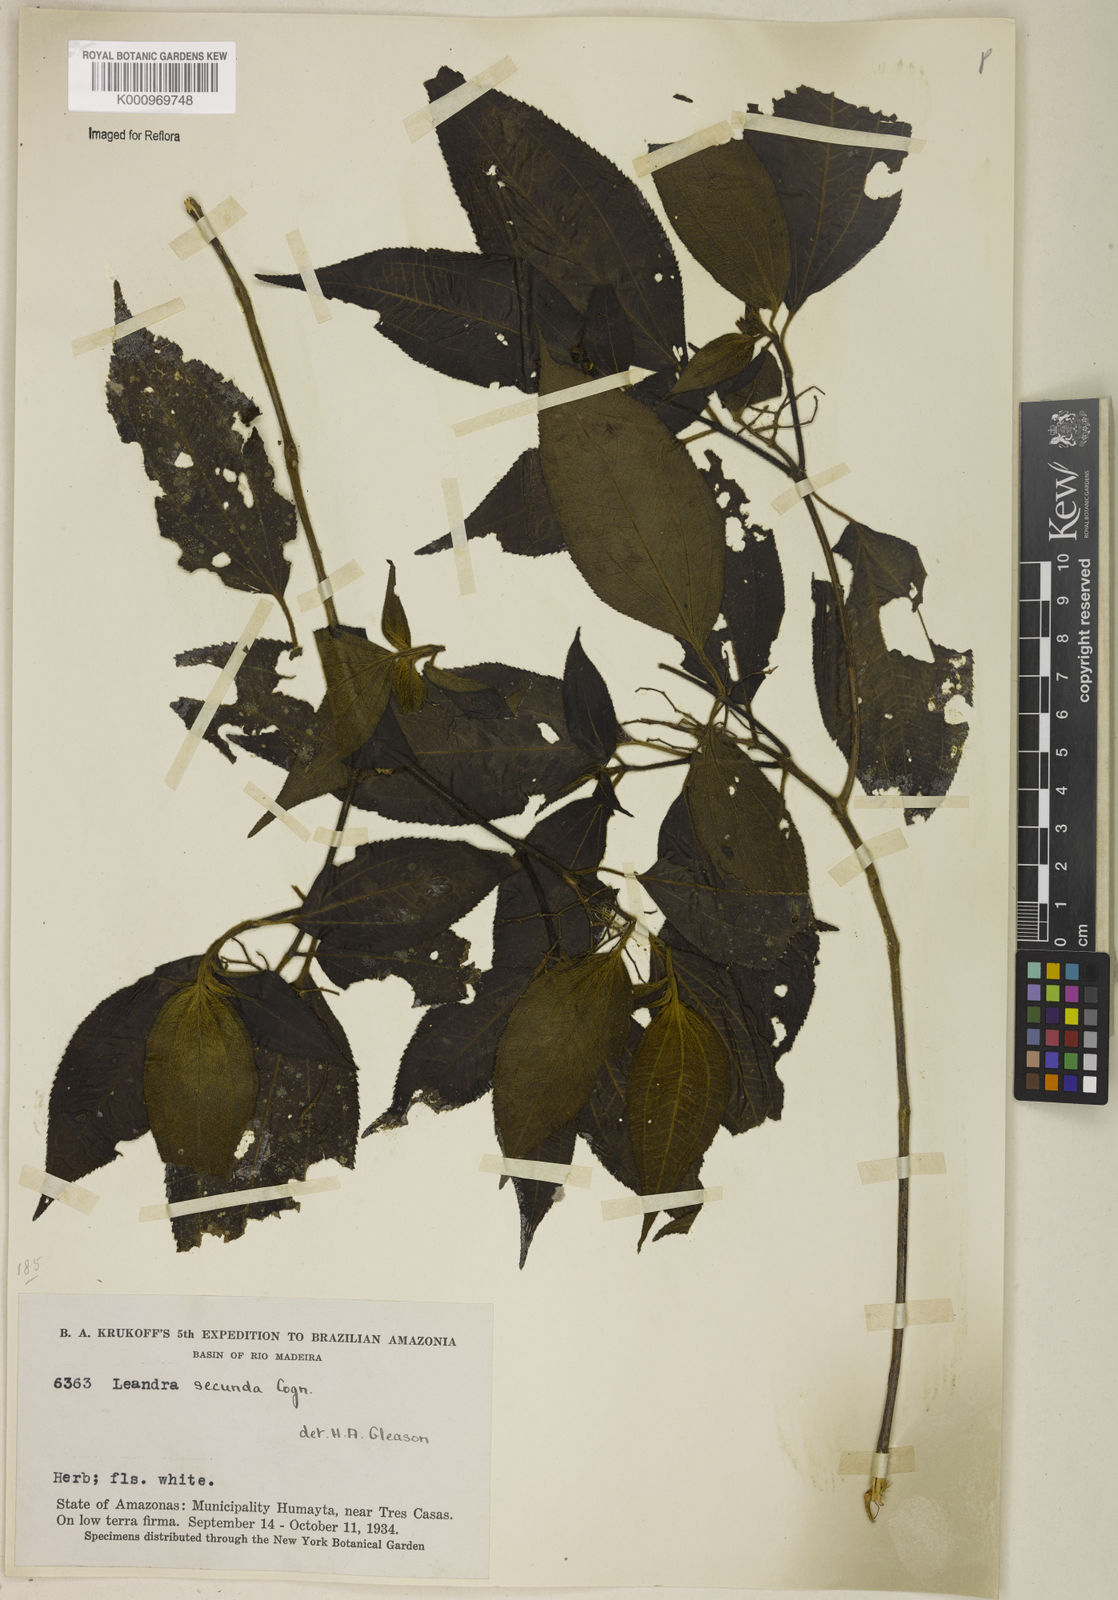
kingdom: Plantae
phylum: Tracheophyta
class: Magnoliopsida
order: Myrtales
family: Melastomataceae
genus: Miconia
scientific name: Miconia neosecunda
